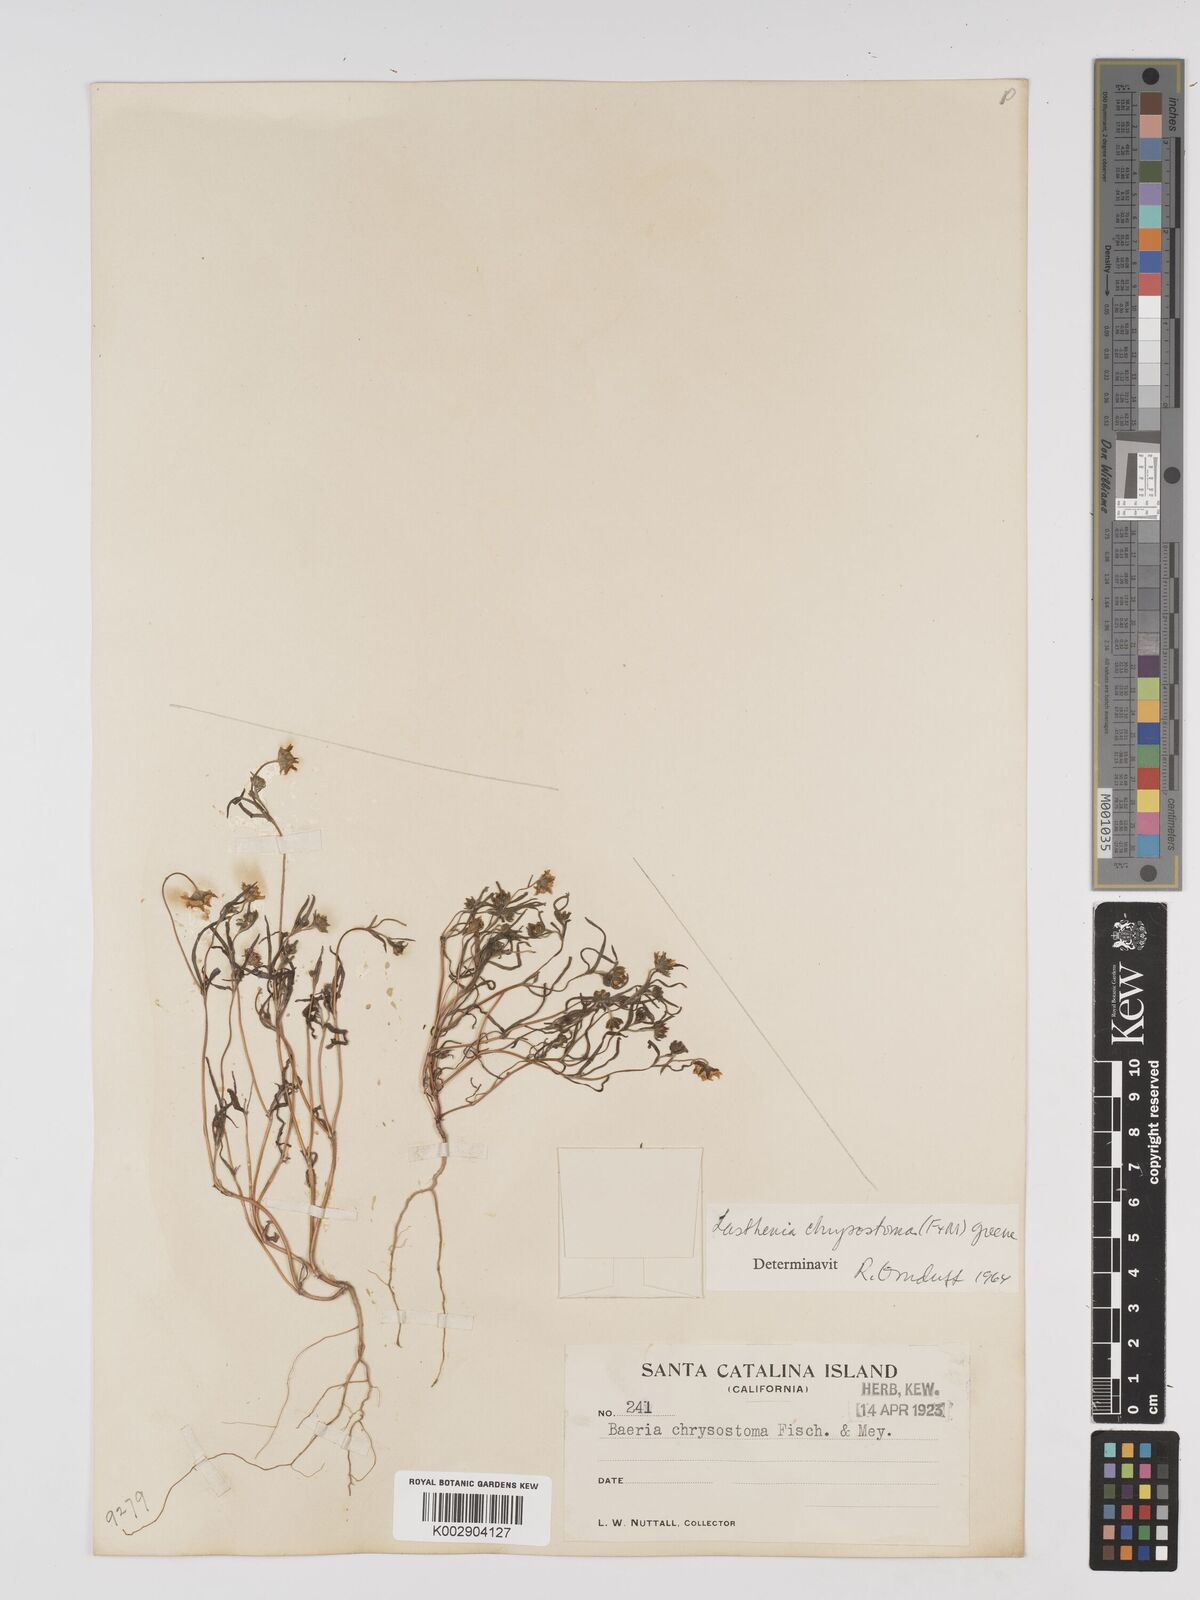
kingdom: Plantae
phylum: Tracheophyta
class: Magnoliopsida
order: Asterales
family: Asteraceae
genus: Lasthenia
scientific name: Lasthenia californica
